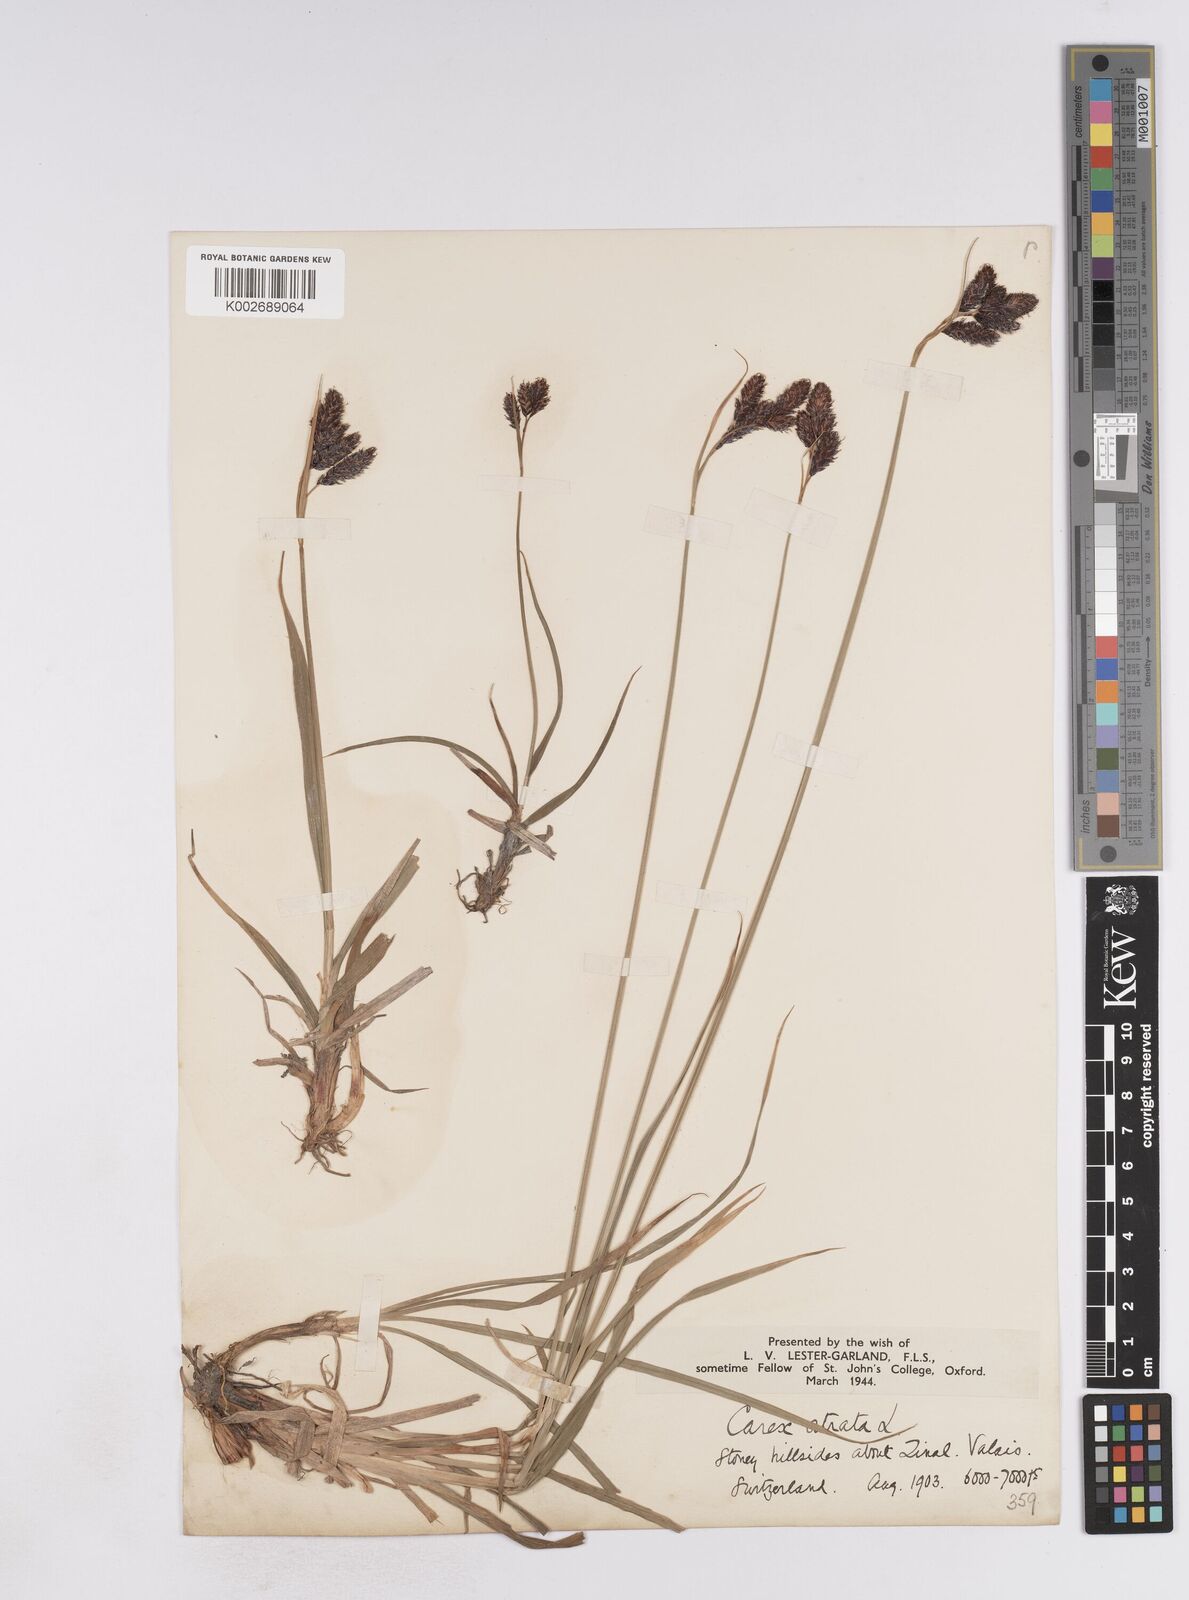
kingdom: Plantae
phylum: Tracheophyta
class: Liliopsida
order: Poales
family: Cyperaceae
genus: Carex
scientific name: Carex atrata
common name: Black alpine sedge
